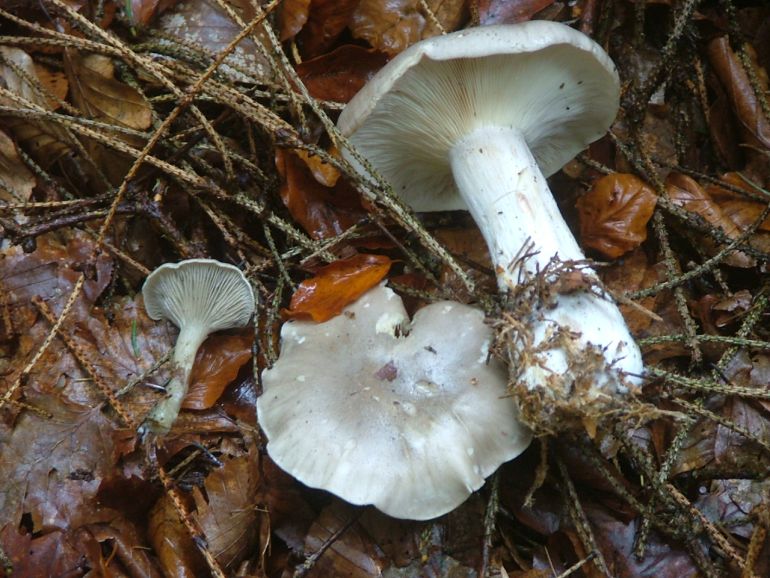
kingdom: Fungi
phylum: Basidiomycota
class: Agaricomycetes
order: Agaricales
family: Tricholomataceae
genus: Clitocybe
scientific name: Clitocybe nebularis
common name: tåge-tragthat
